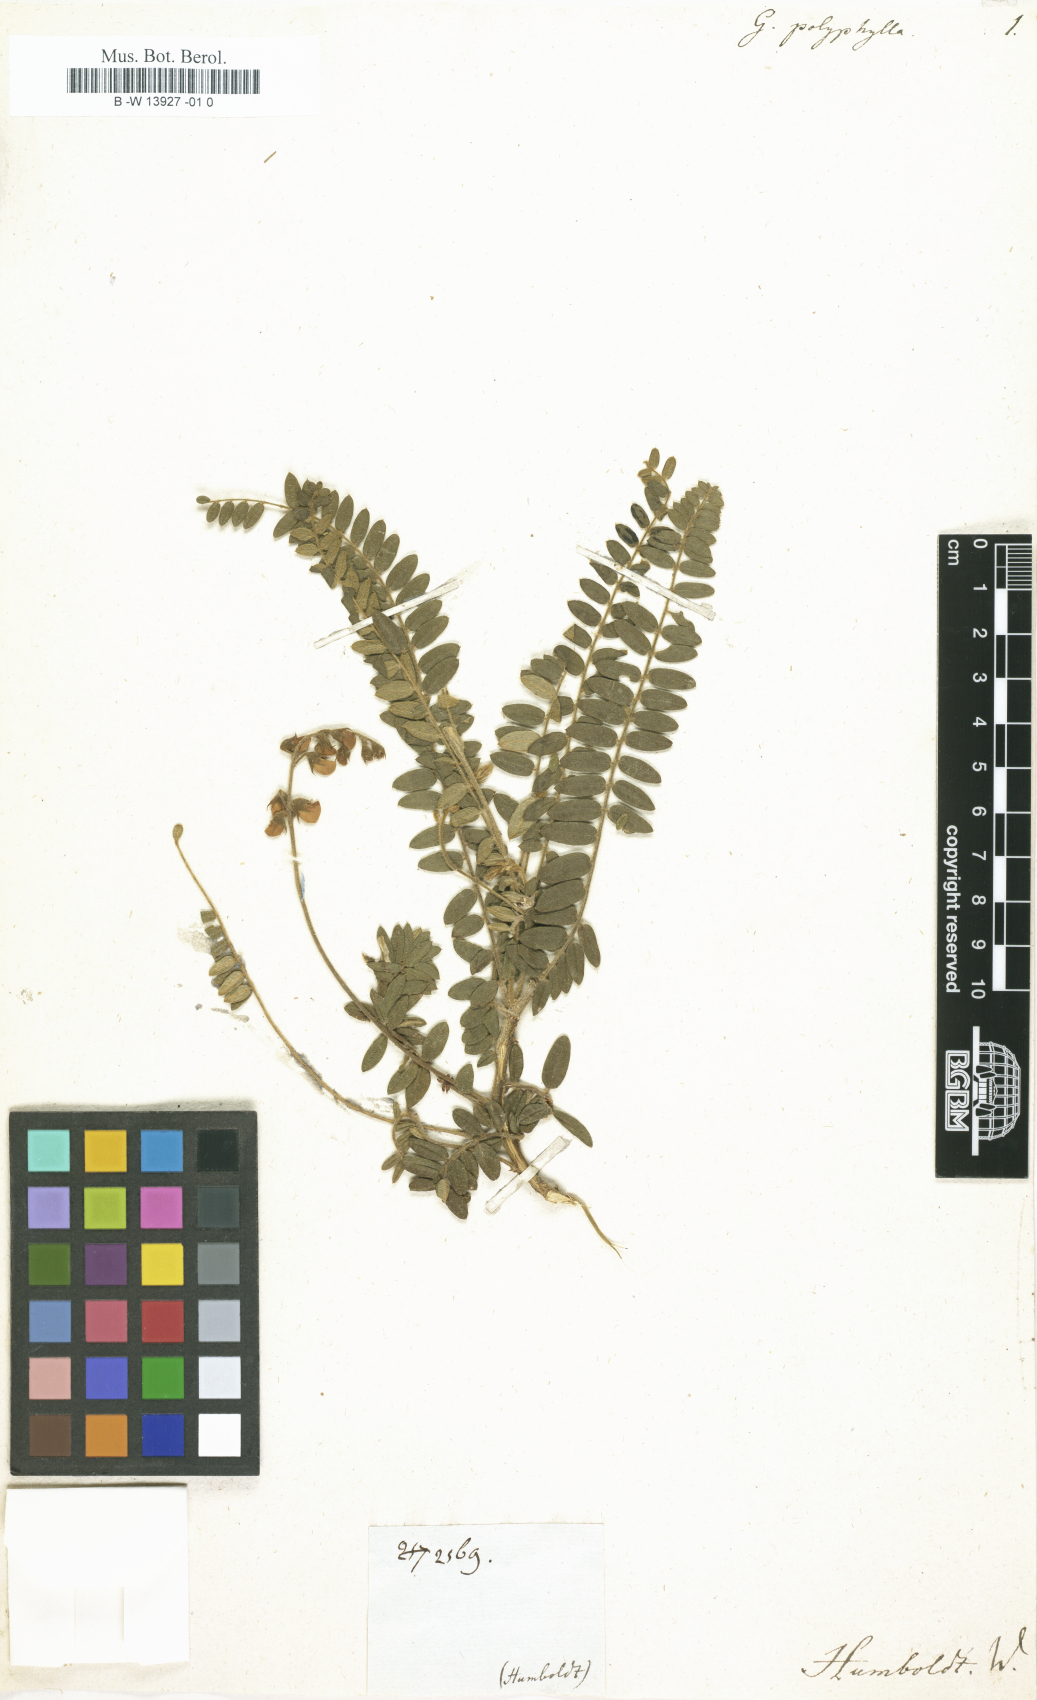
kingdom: Plantae
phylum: Tracheophyta
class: Magnoliopsida
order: Fabales
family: Fabaceae
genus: Galega
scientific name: Galega
